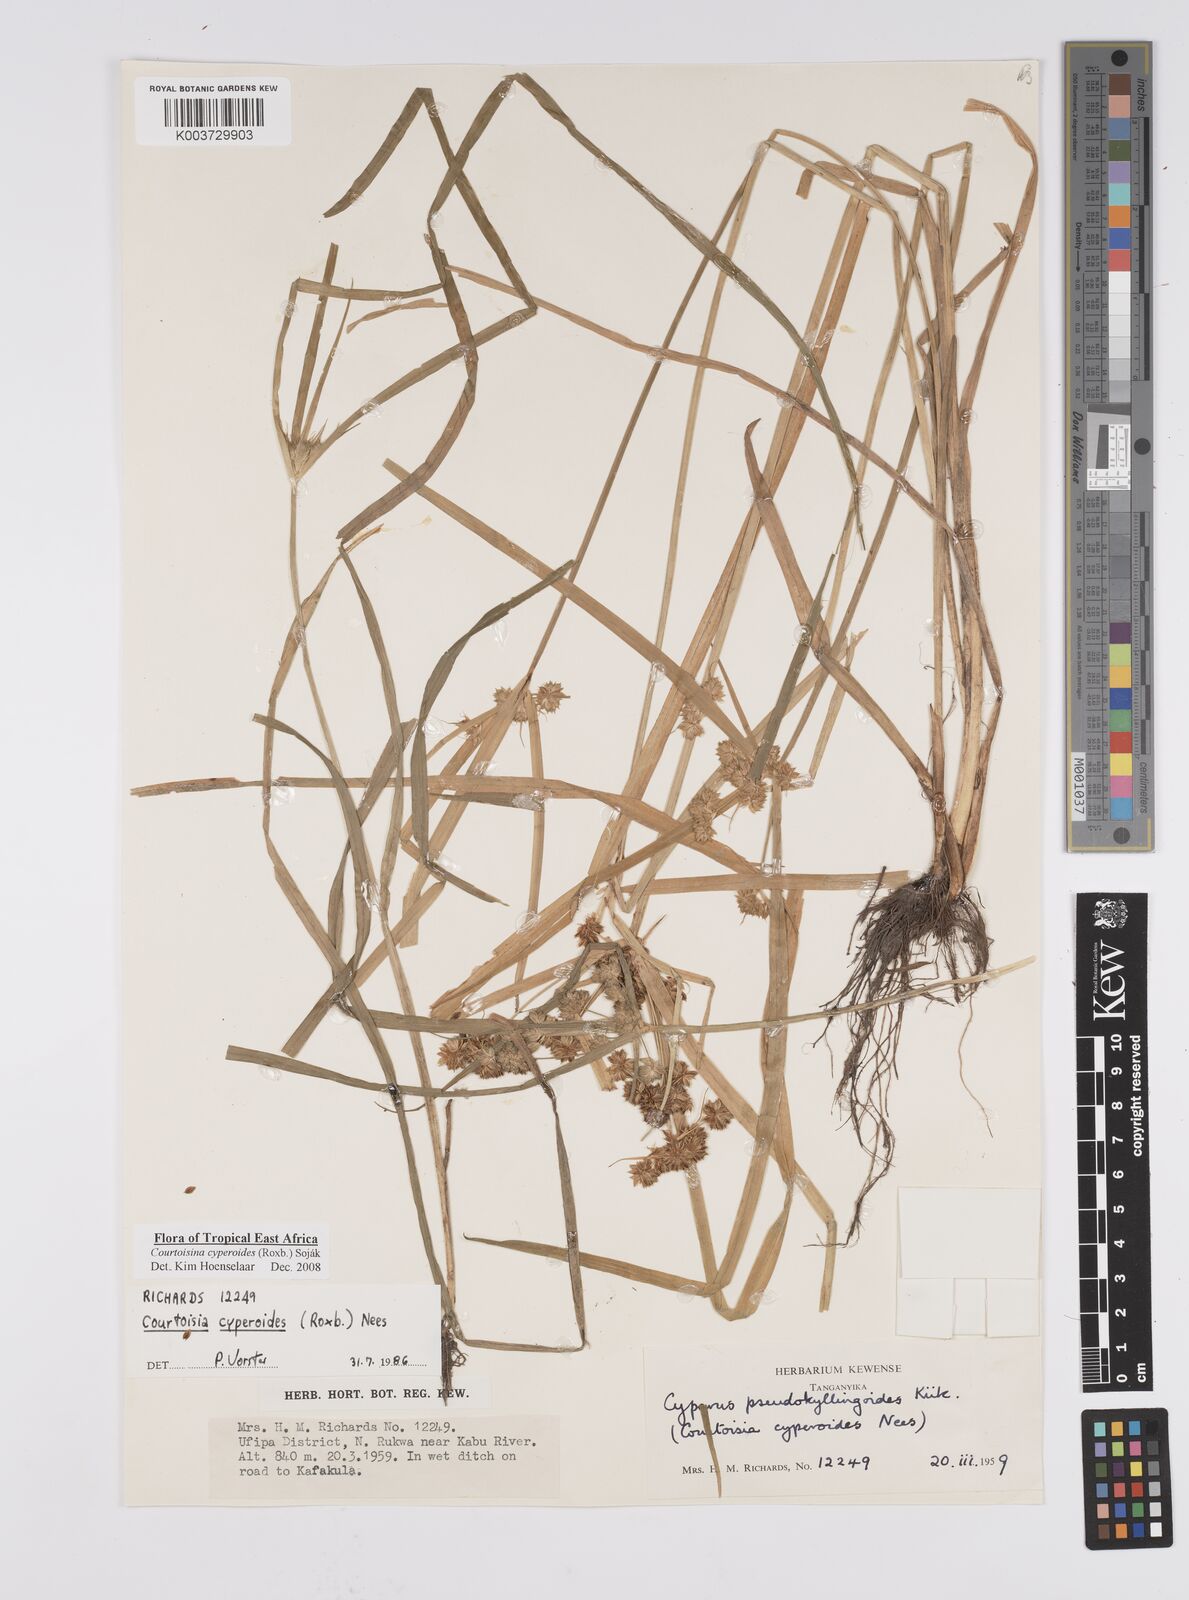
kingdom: Plantae
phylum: Tracheophyta
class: Liliopsida
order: Poales
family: Cyperaceae
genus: Cyperus
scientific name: Cyperus cyperoides
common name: Pacific island flat sedge
